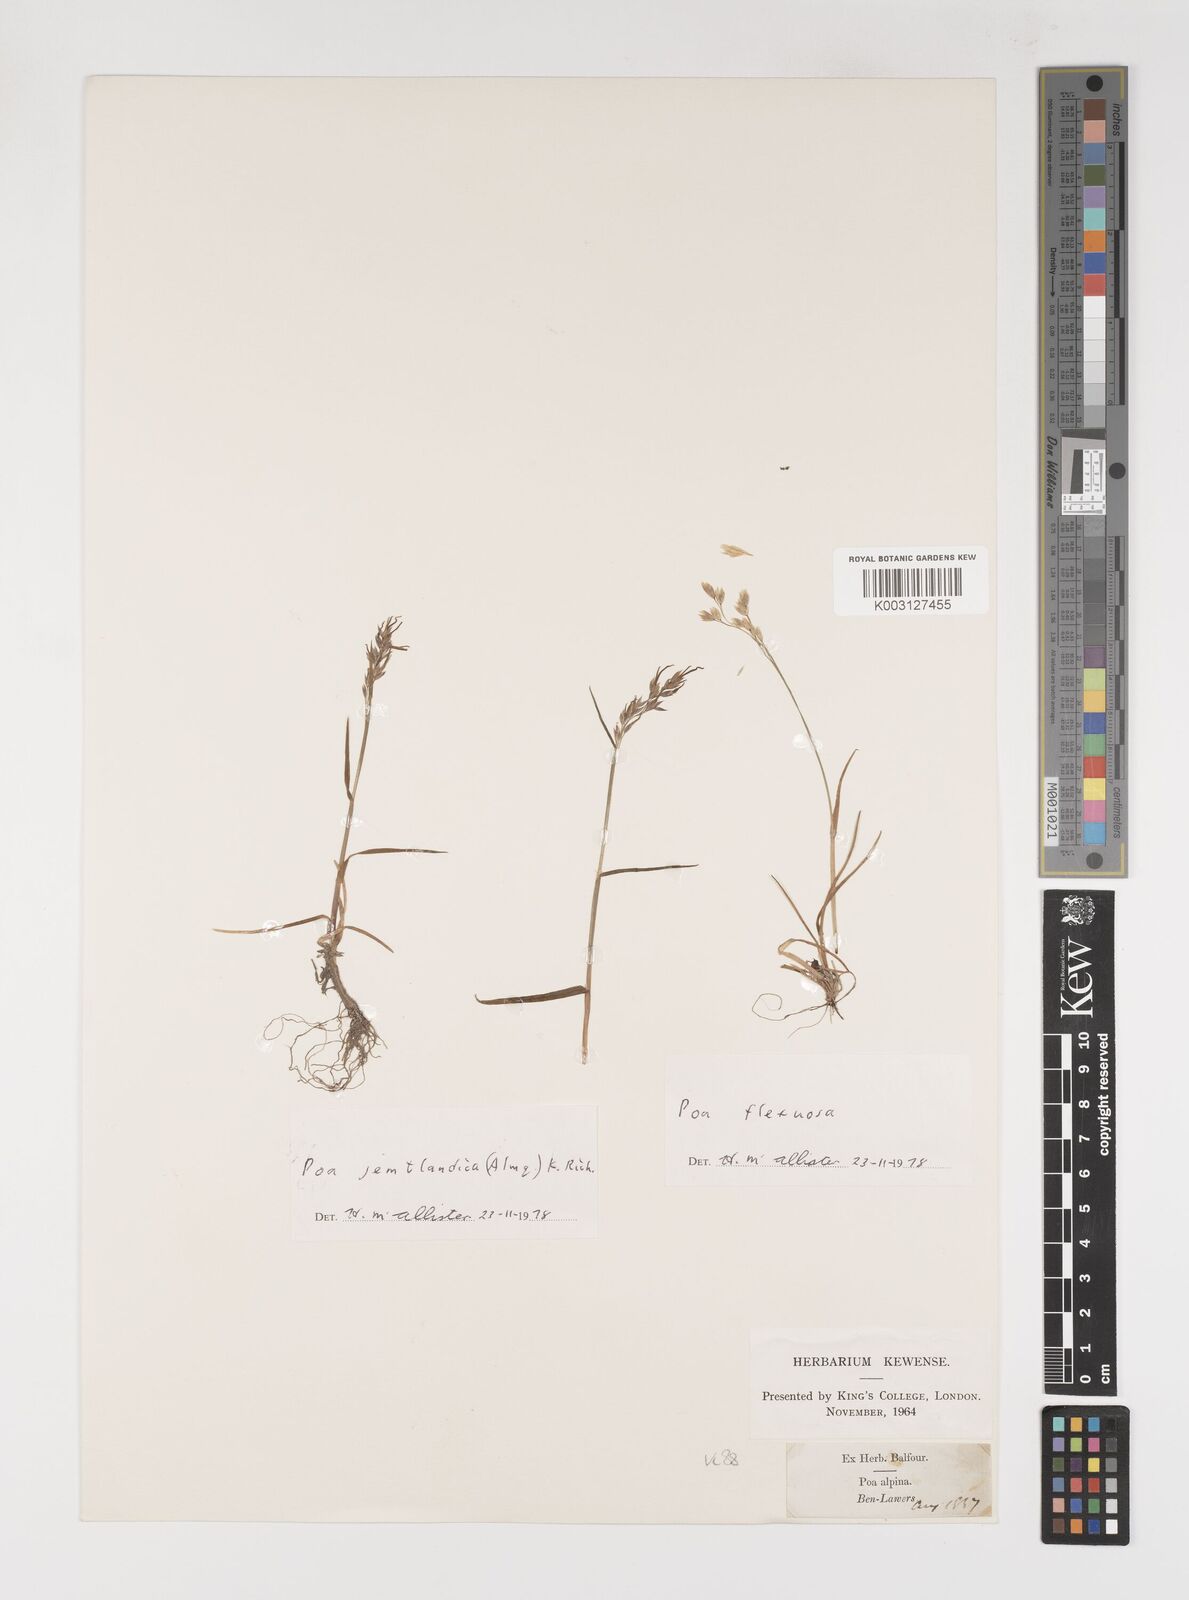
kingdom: Plantae
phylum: Tracheophyta
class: Liliopsida
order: Poales
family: Poaceae
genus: Poa
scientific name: Poa jemtlandica
